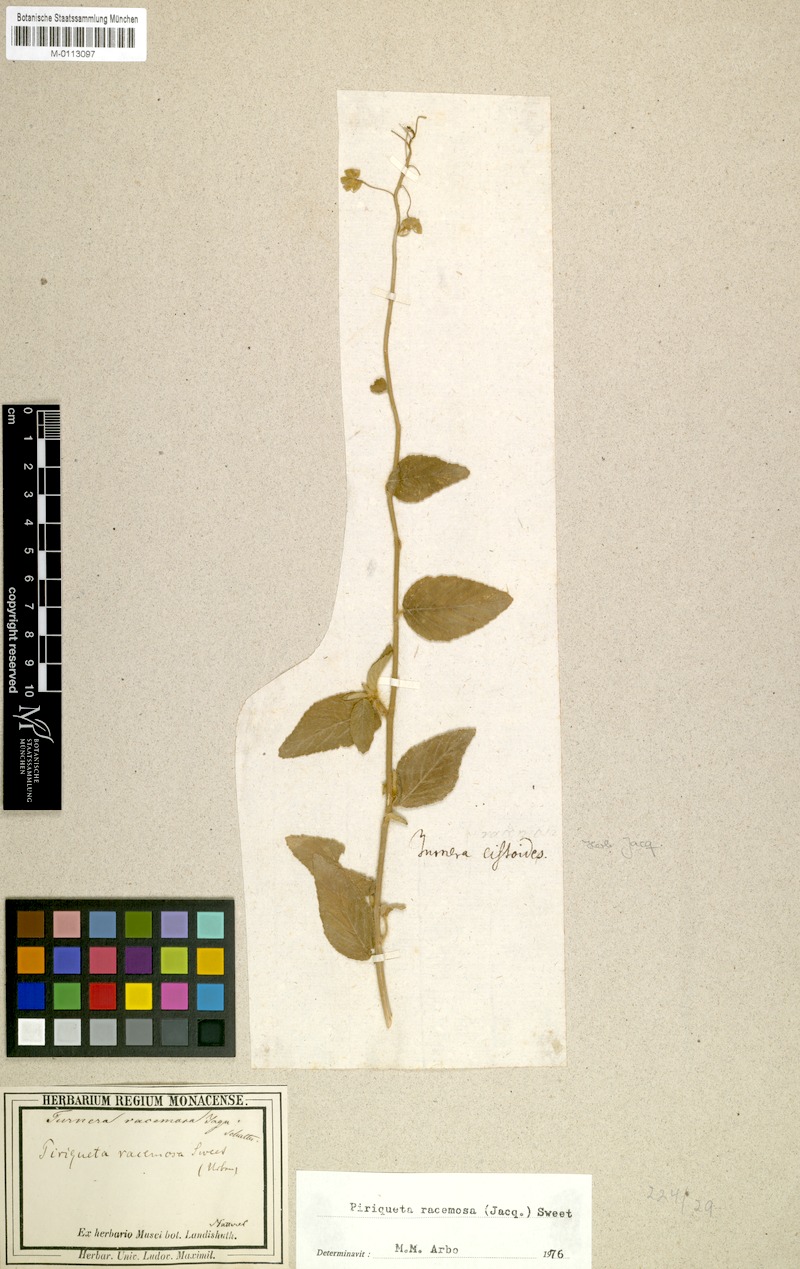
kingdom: Plantae
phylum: Tracheophyta
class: Magnoliopsida
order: Malpighiales
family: Turneraceae
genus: Piriqueta
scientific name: Piriqueta racemosa
